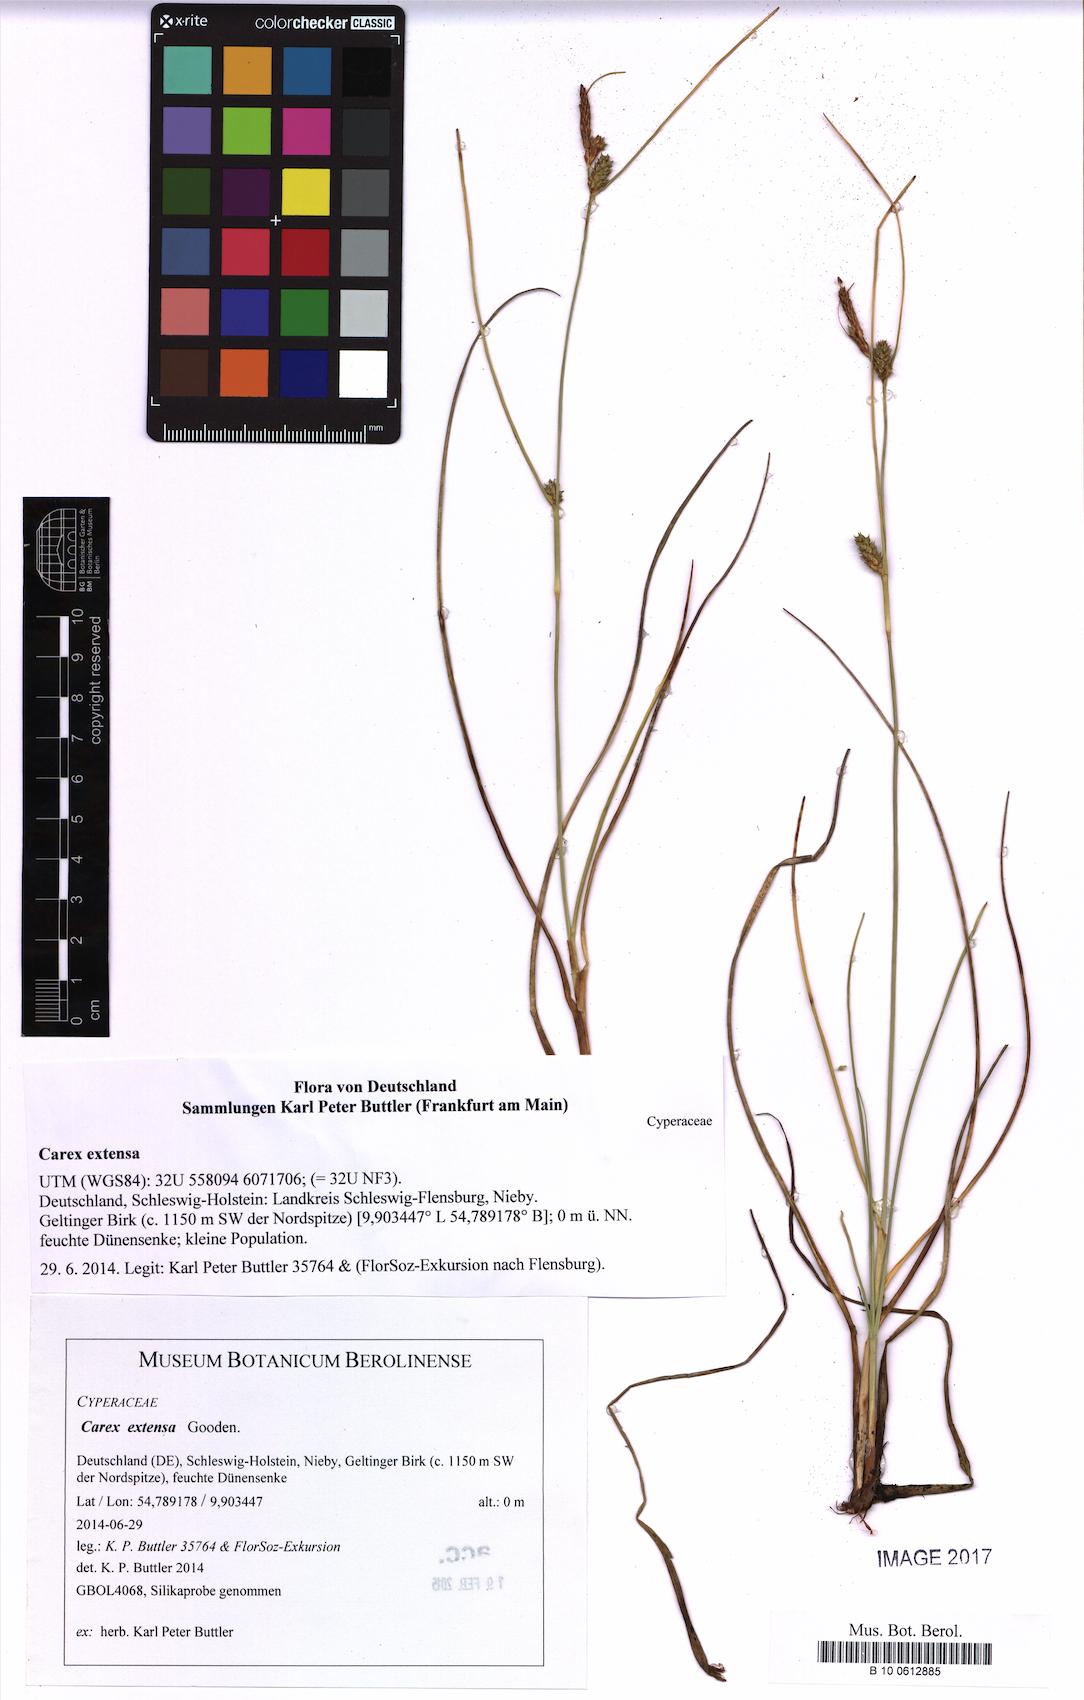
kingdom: Plantae
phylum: Tracheophyta
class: Liliopsida
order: Poales
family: Cyperaceae
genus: Carex
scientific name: Carex extensa
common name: Long-bracted sedge
